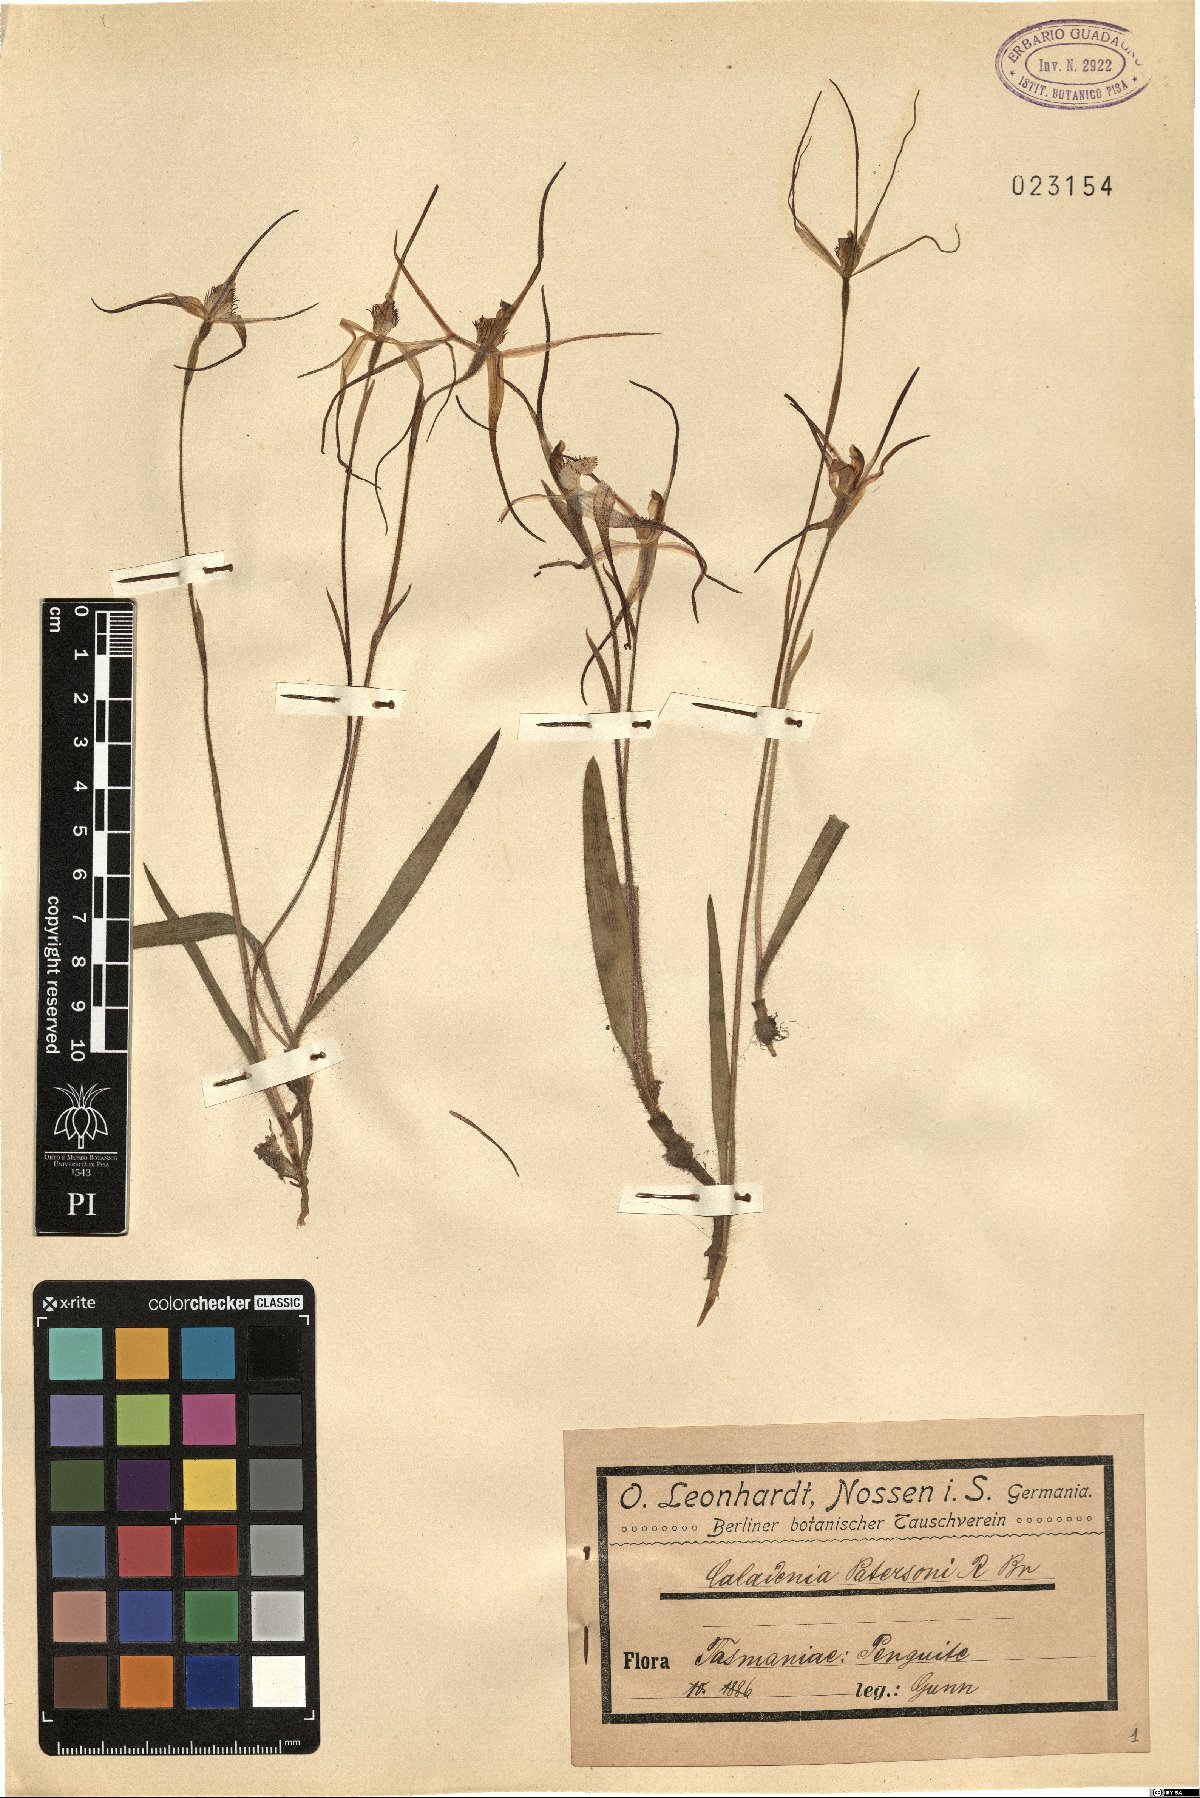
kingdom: Plantae
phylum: Tracheophyta
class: Liliopsida
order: Asparagales
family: Orchidaceae
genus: Caladenia
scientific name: Caladenia patersonii
